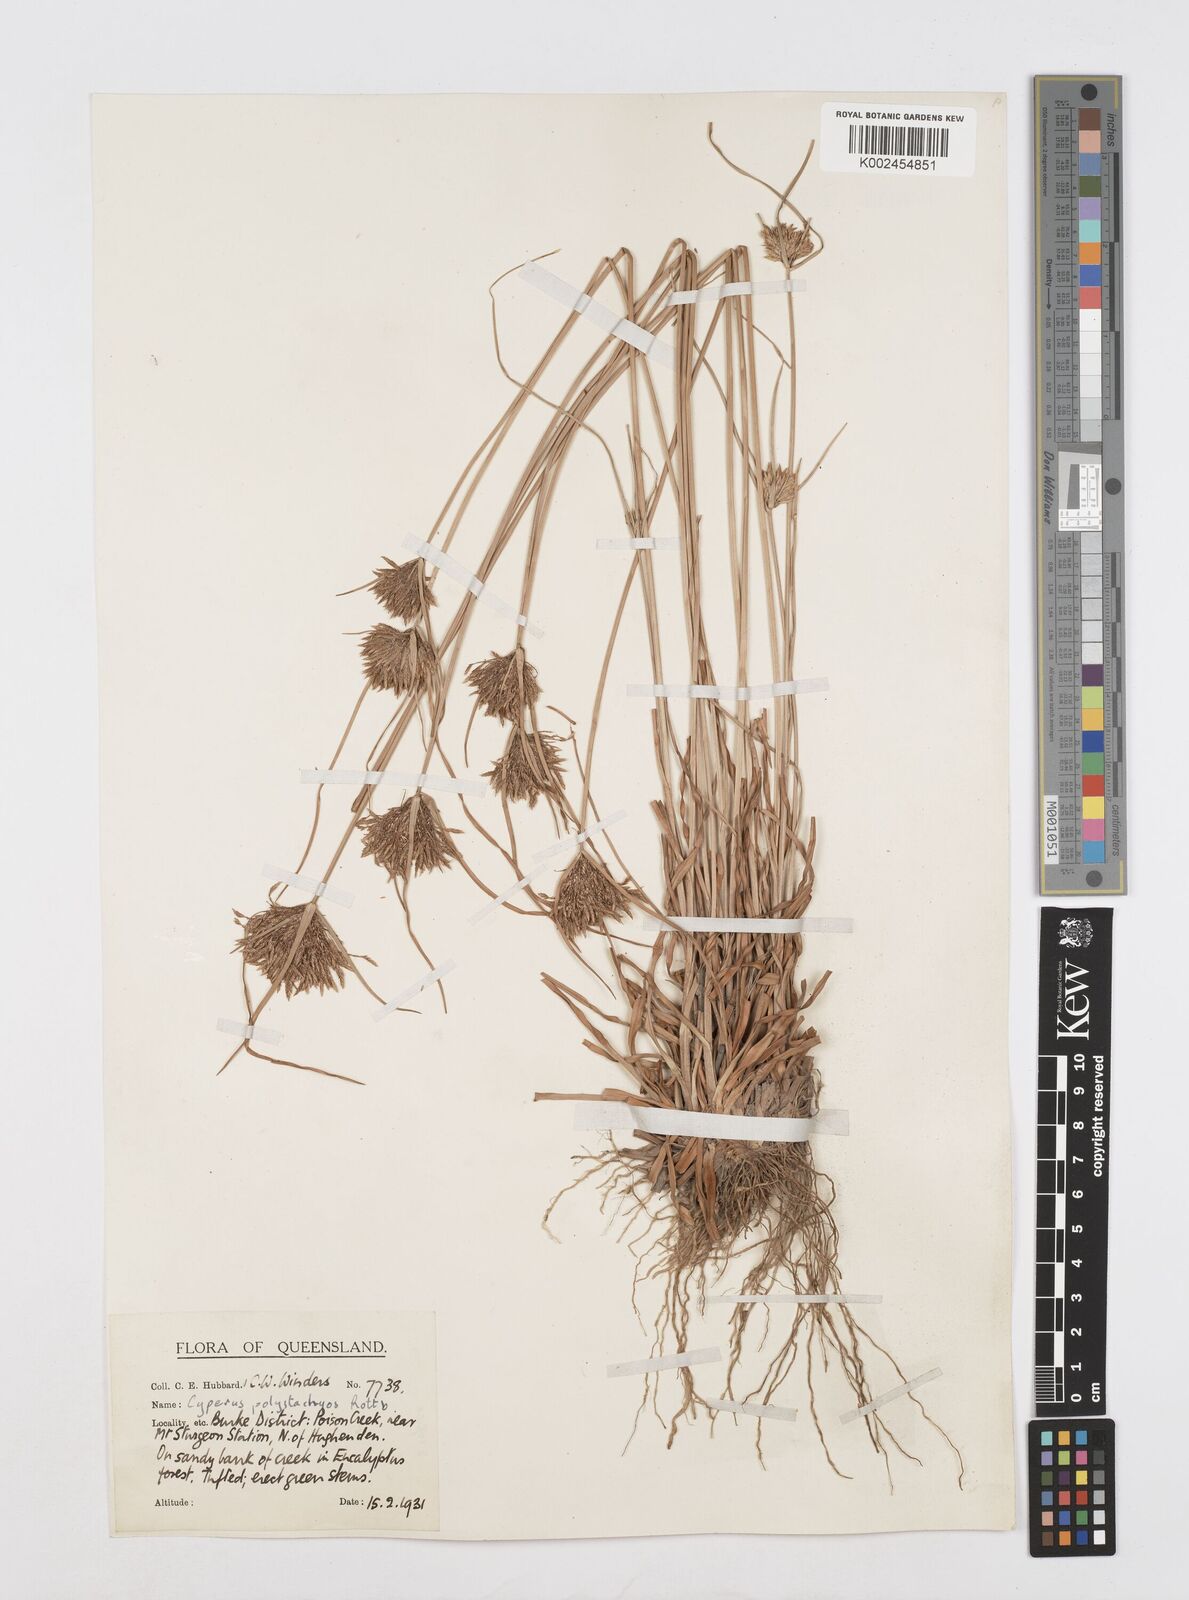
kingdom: Plantae
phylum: Tracheophyta
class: Liliopsida
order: Poales
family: Cyperaceae
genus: Cyperus
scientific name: Cyperus polystachyos
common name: Bunchy flat sedge
